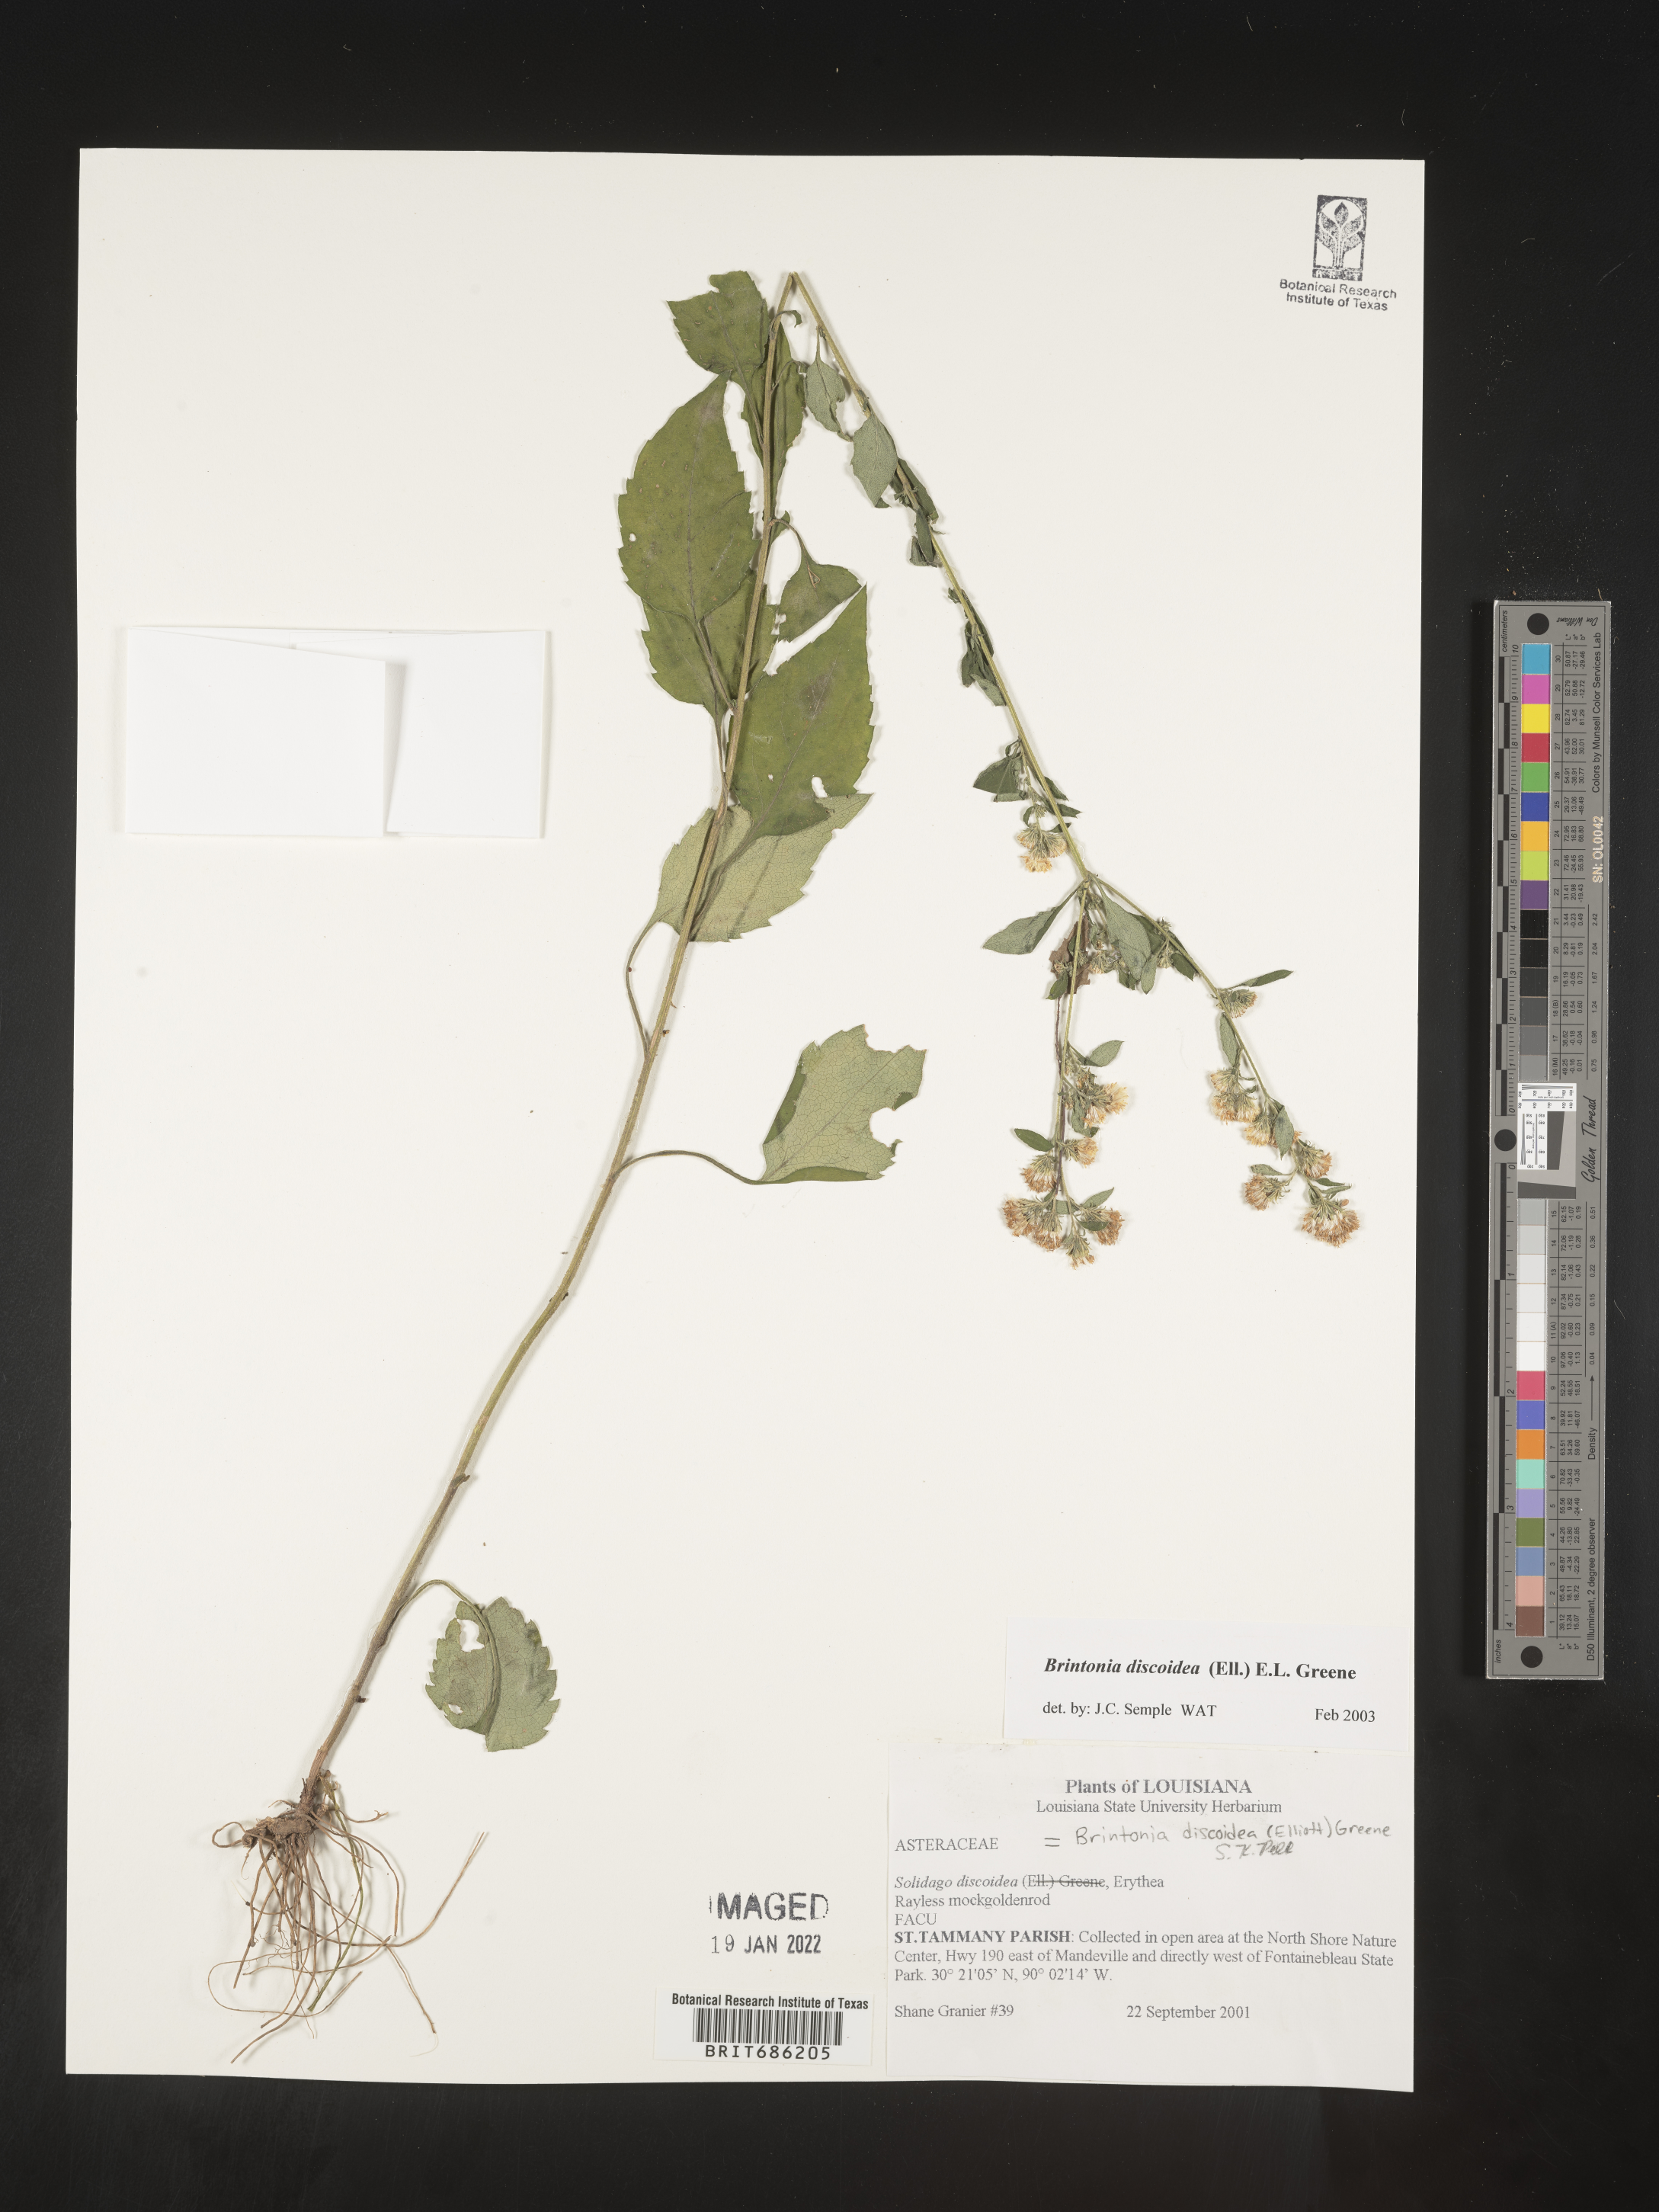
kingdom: Plantae
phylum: Tracheophyta
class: Magnoliopsida
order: Asterales
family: Asteraceae
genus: Solidago
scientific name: Solidago discoidea
